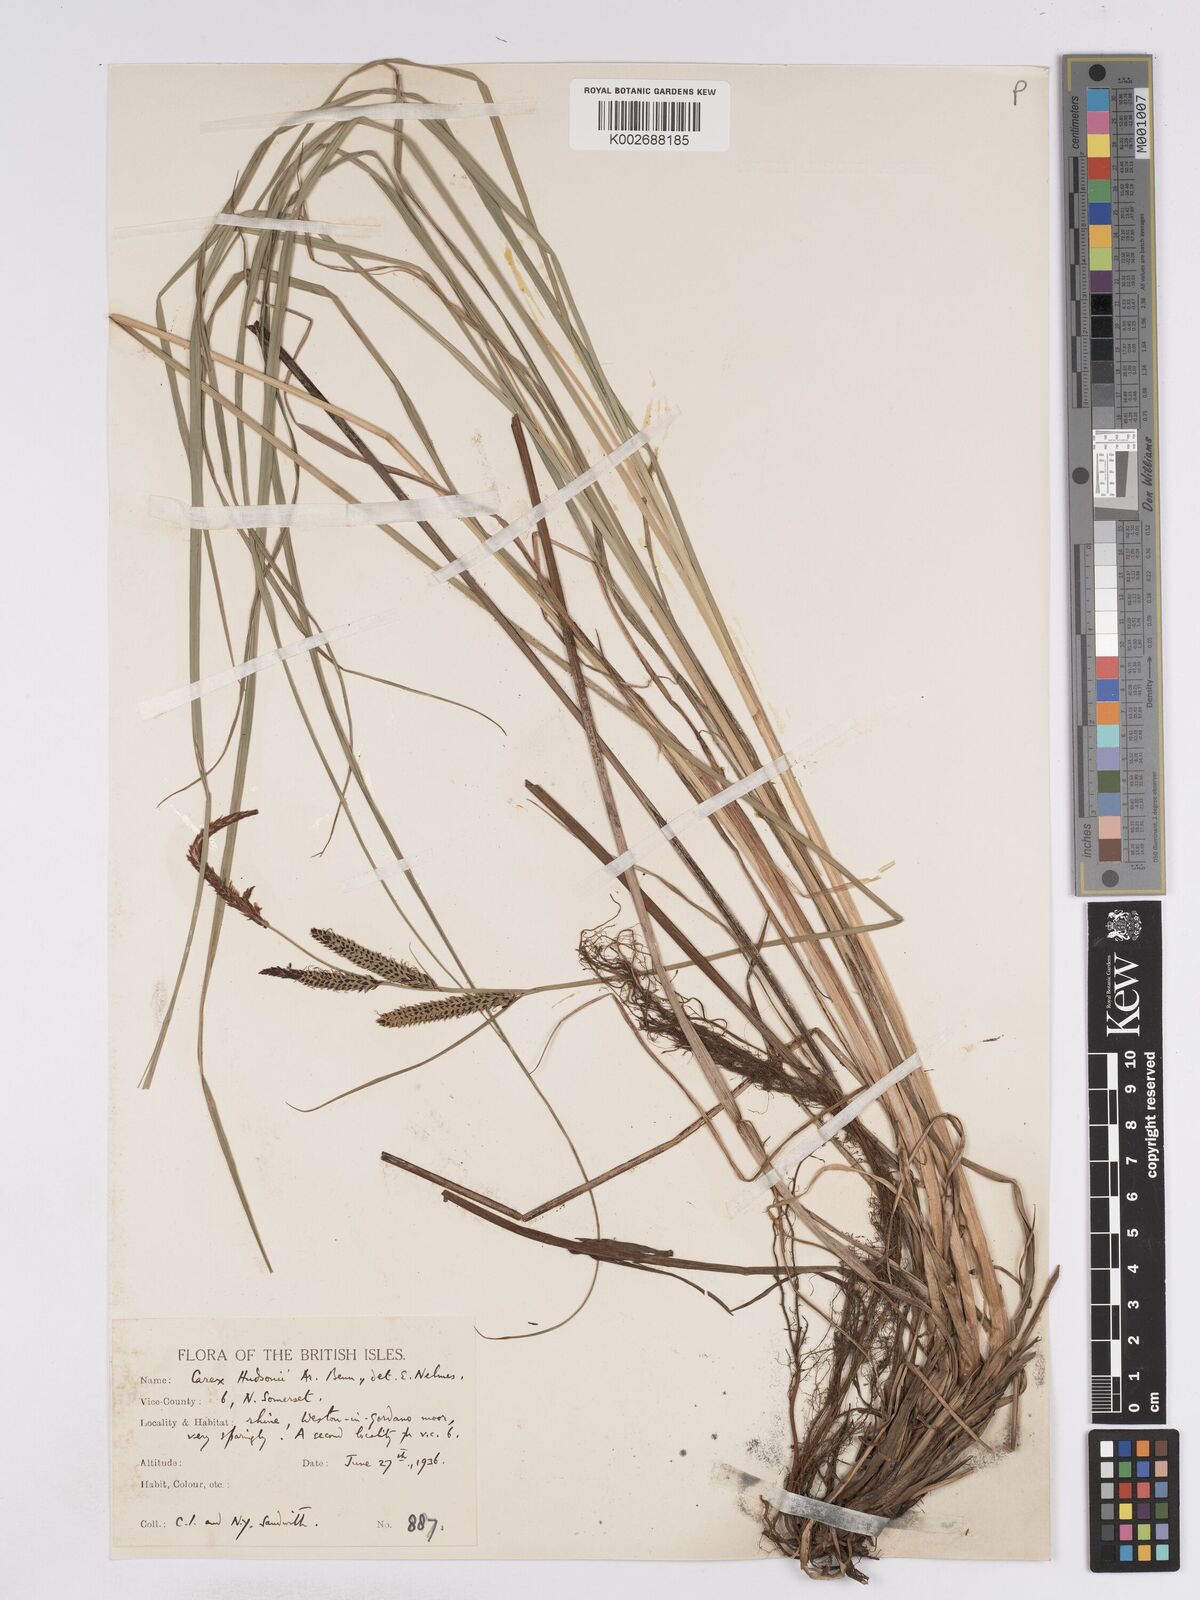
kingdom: Plantae
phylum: Tracheophyta
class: Liliopsida
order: Poales
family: Cyperaceae
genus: Carex
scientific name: Carex elata
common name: Tufted sedge
